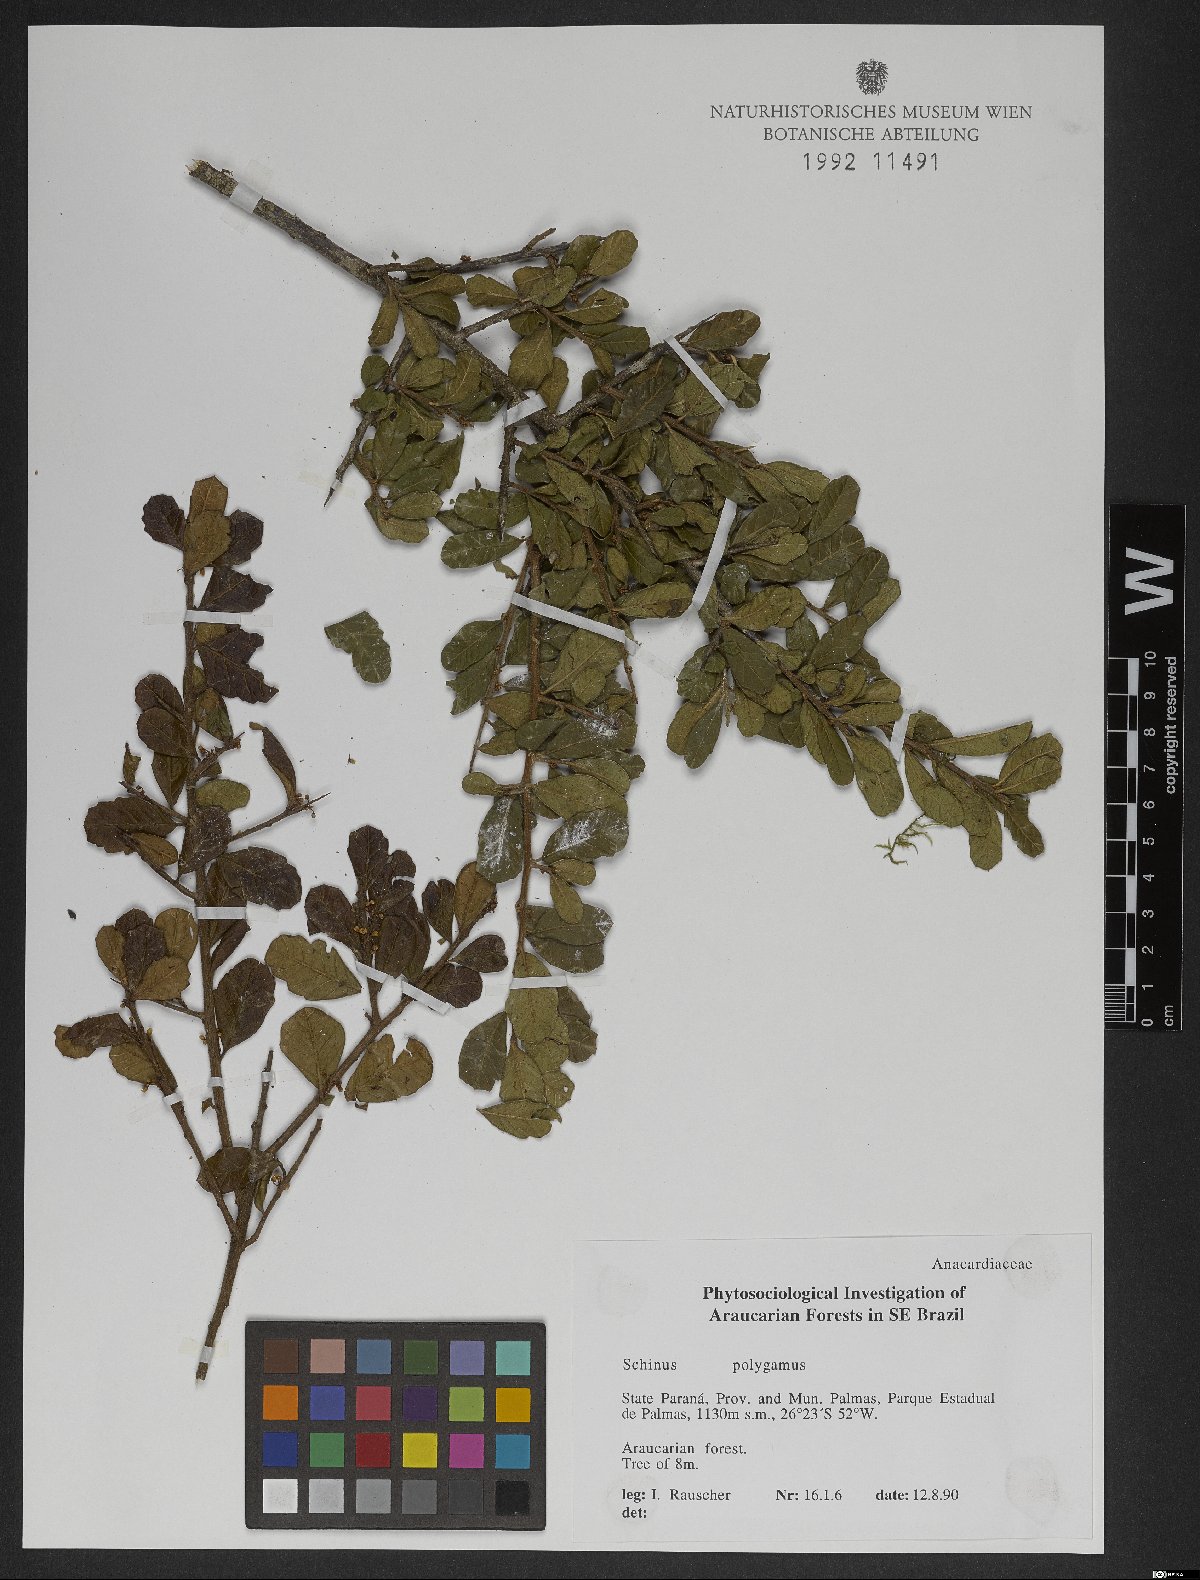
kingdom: Plantae
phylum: Tracheophyta
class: Magnoliopsida
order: Sapindales
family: Anacardiaceae
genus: Schinus
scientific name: Schinus polygama
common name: Hardee peppertree
